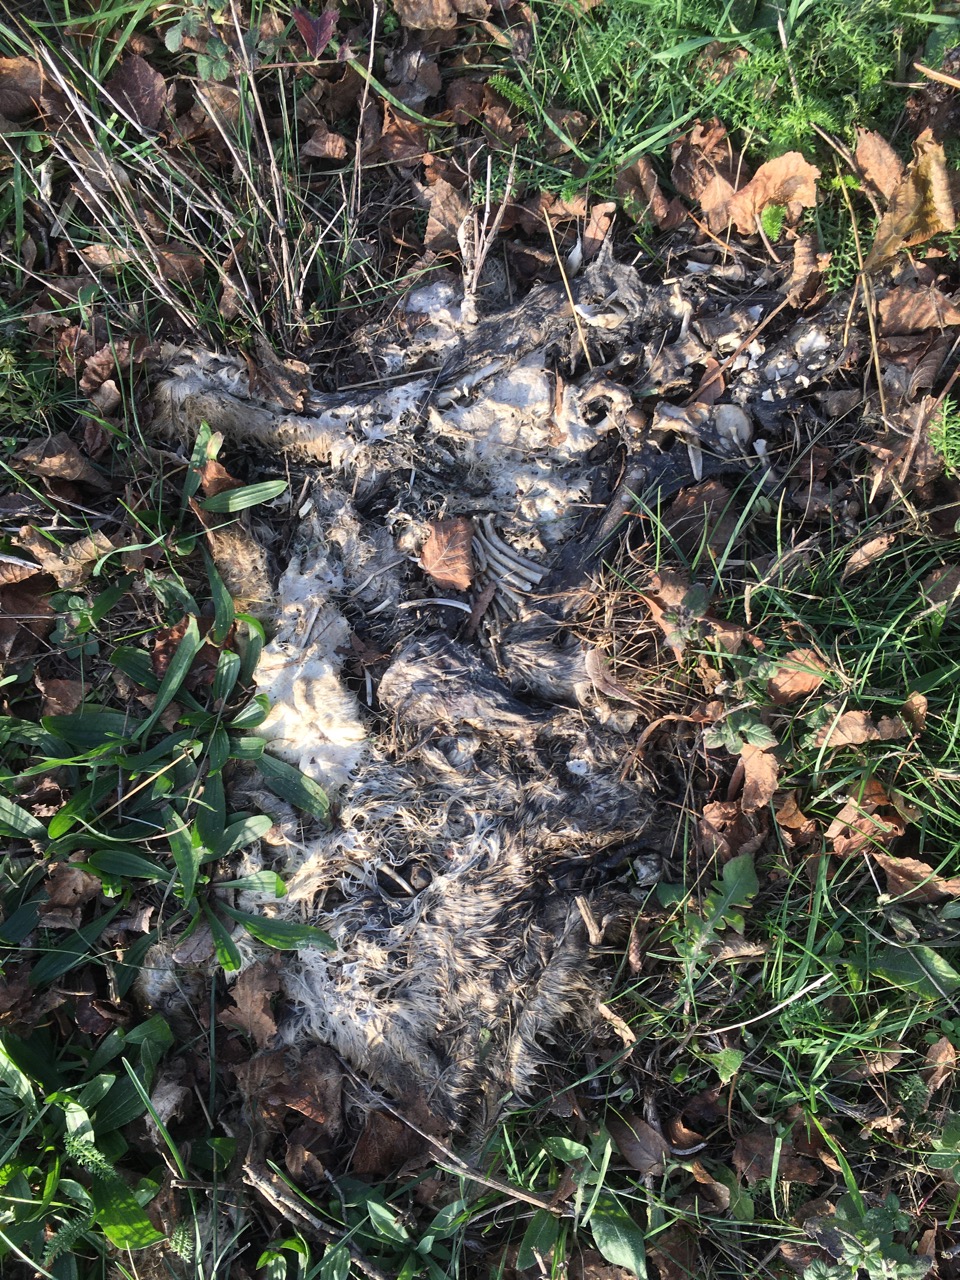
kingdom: Animalia
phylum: Chordata
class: Mammalia
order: Lagomorpha
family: Leporidae
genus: Lepus
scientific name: Lepus europaeus
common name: European hare
